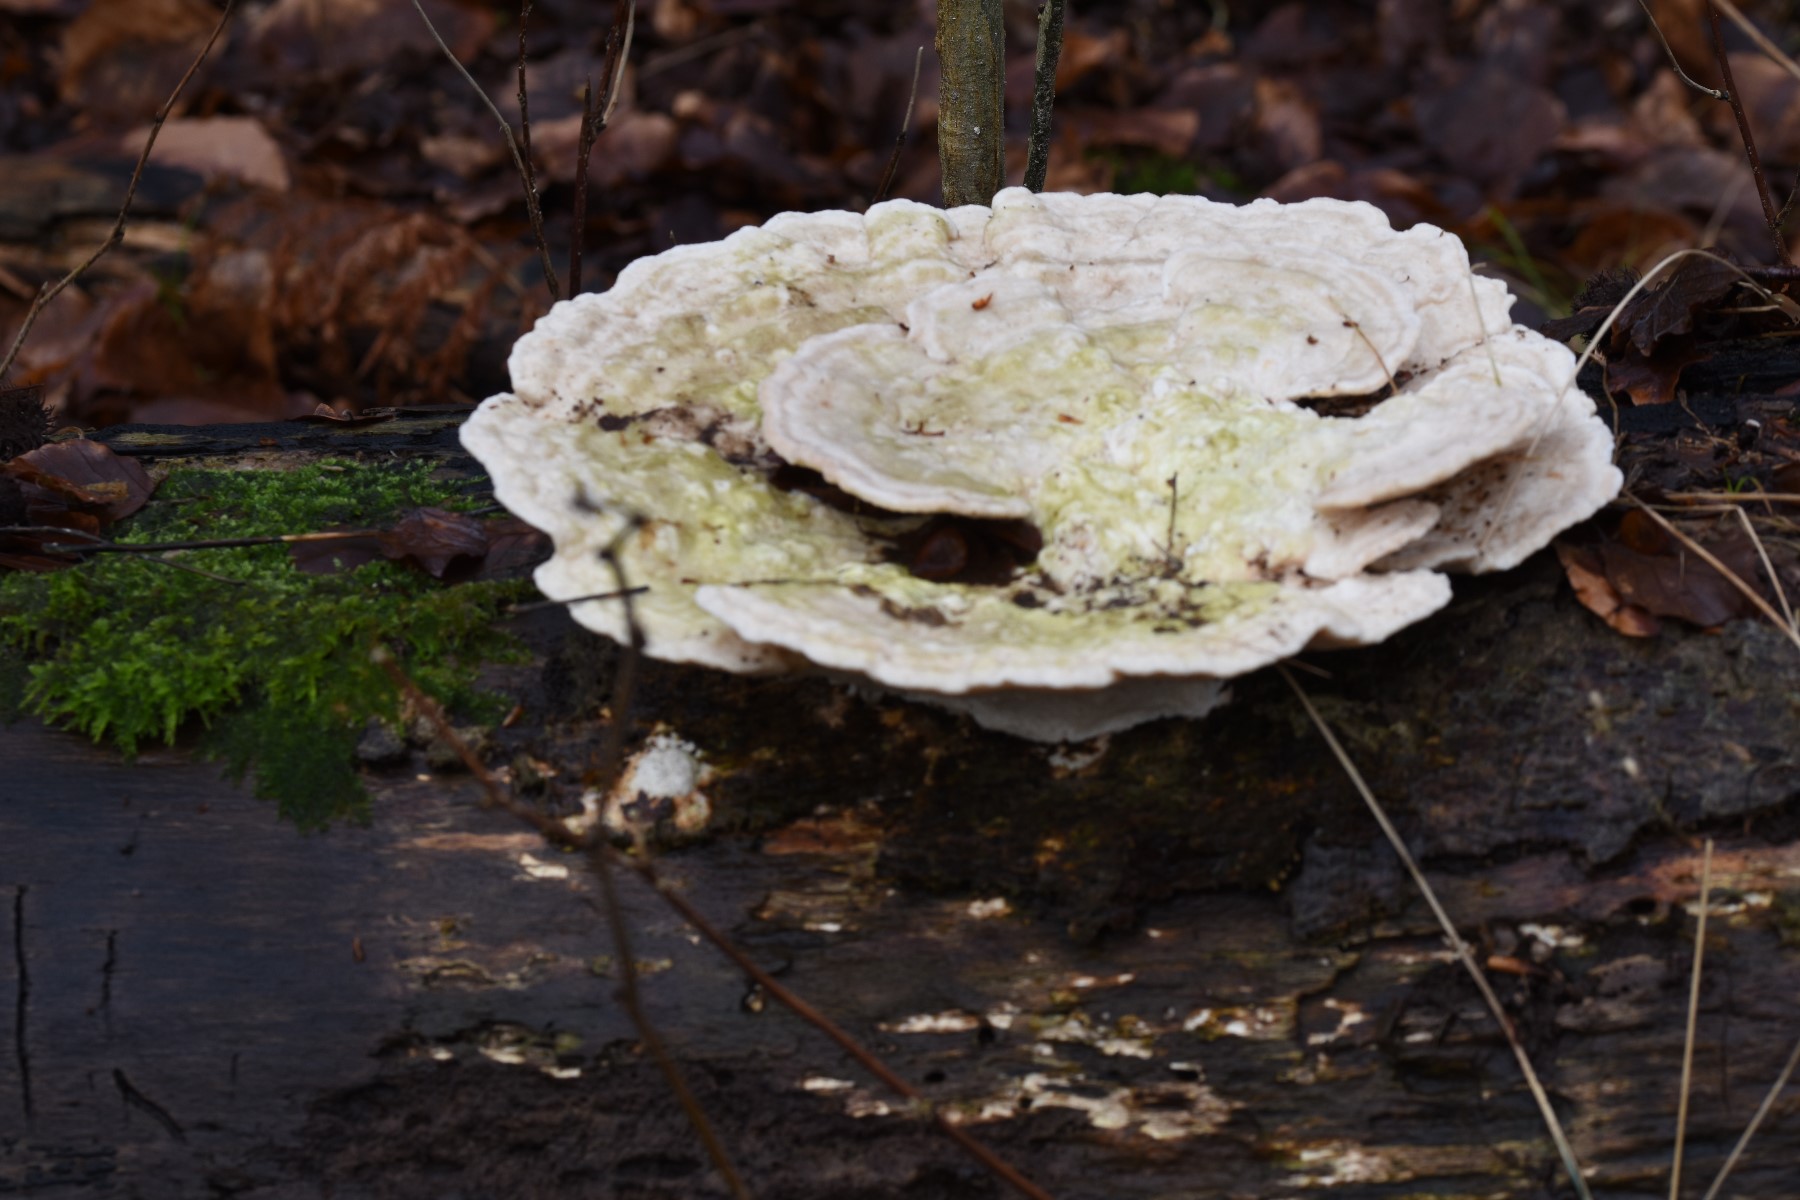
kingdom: Fungi
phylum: Basidiomycota
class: Agaricomycetes
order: Polyporales
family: Polyporaceae
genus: Trametes
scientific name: Trametes hirsuta
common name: håret læderporesvamp
